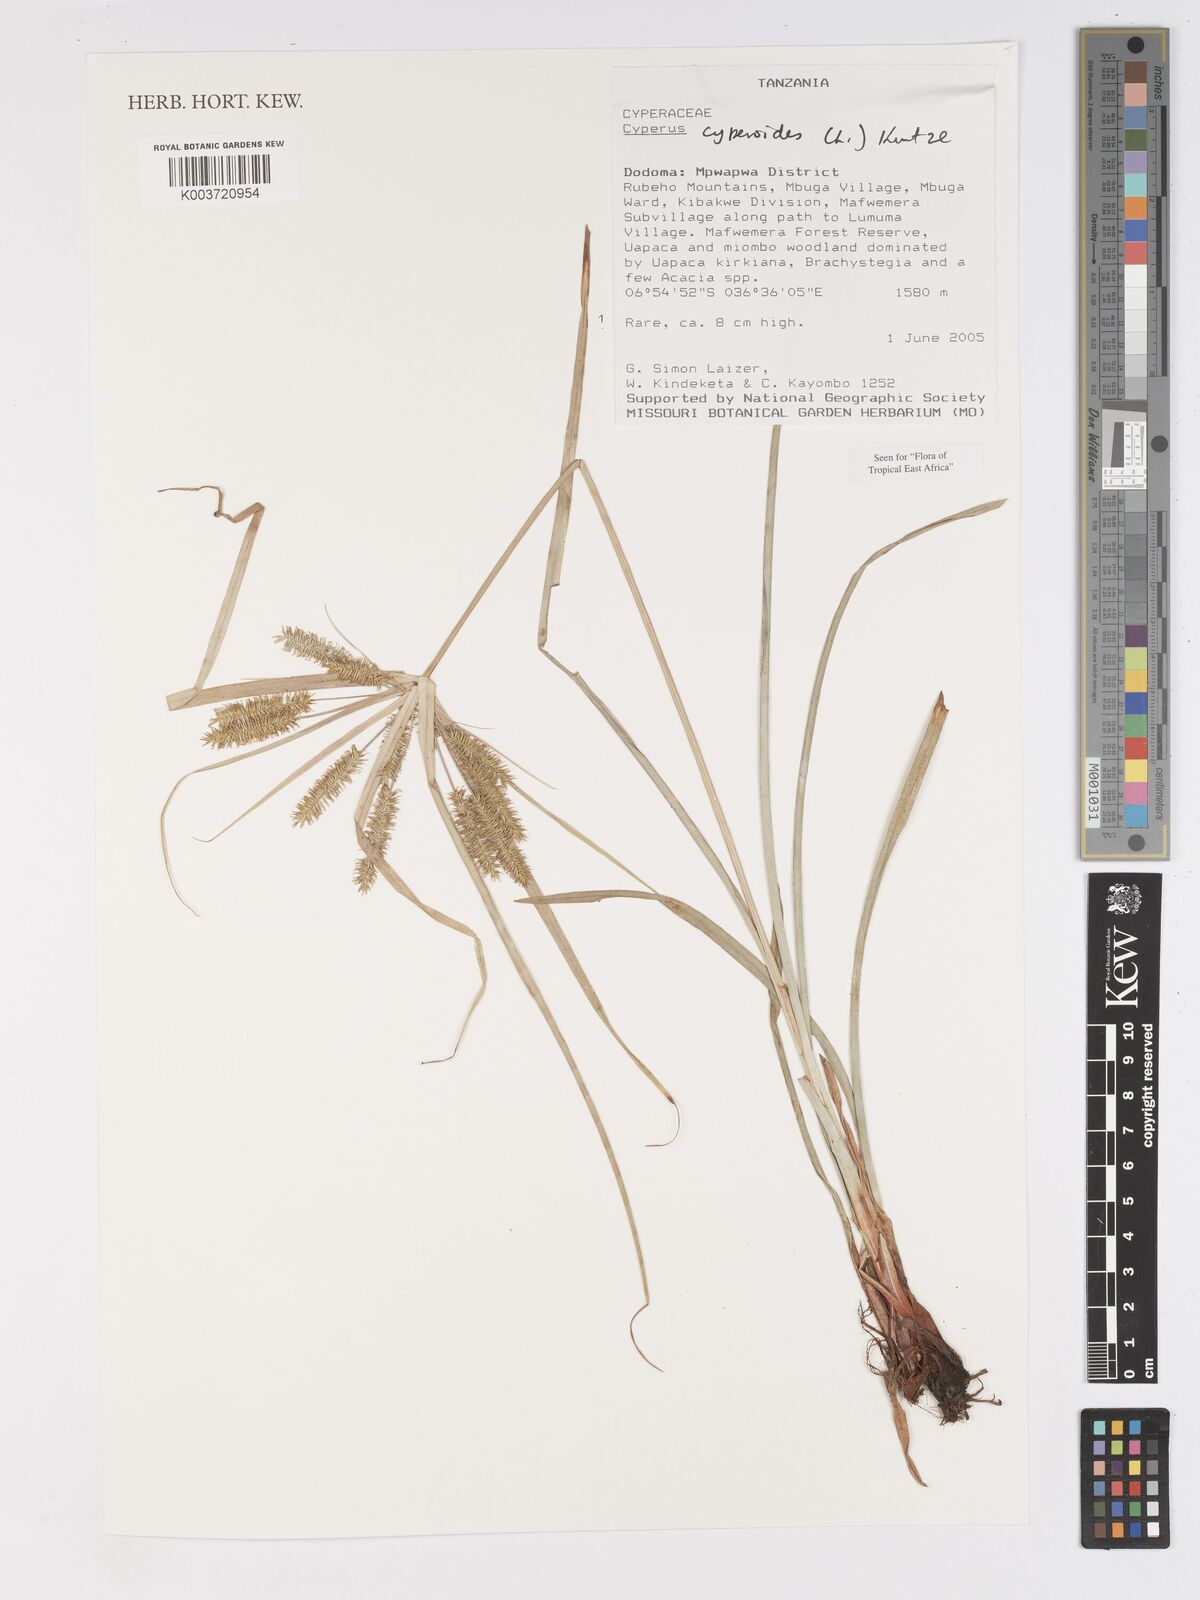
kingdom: Plantae
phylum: Tracheophyta
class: Liliopsida
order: Poales
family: Cyperaceae
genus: Cyperus
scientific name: Cyperus cyperoides
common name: Pacific island flat sedge
